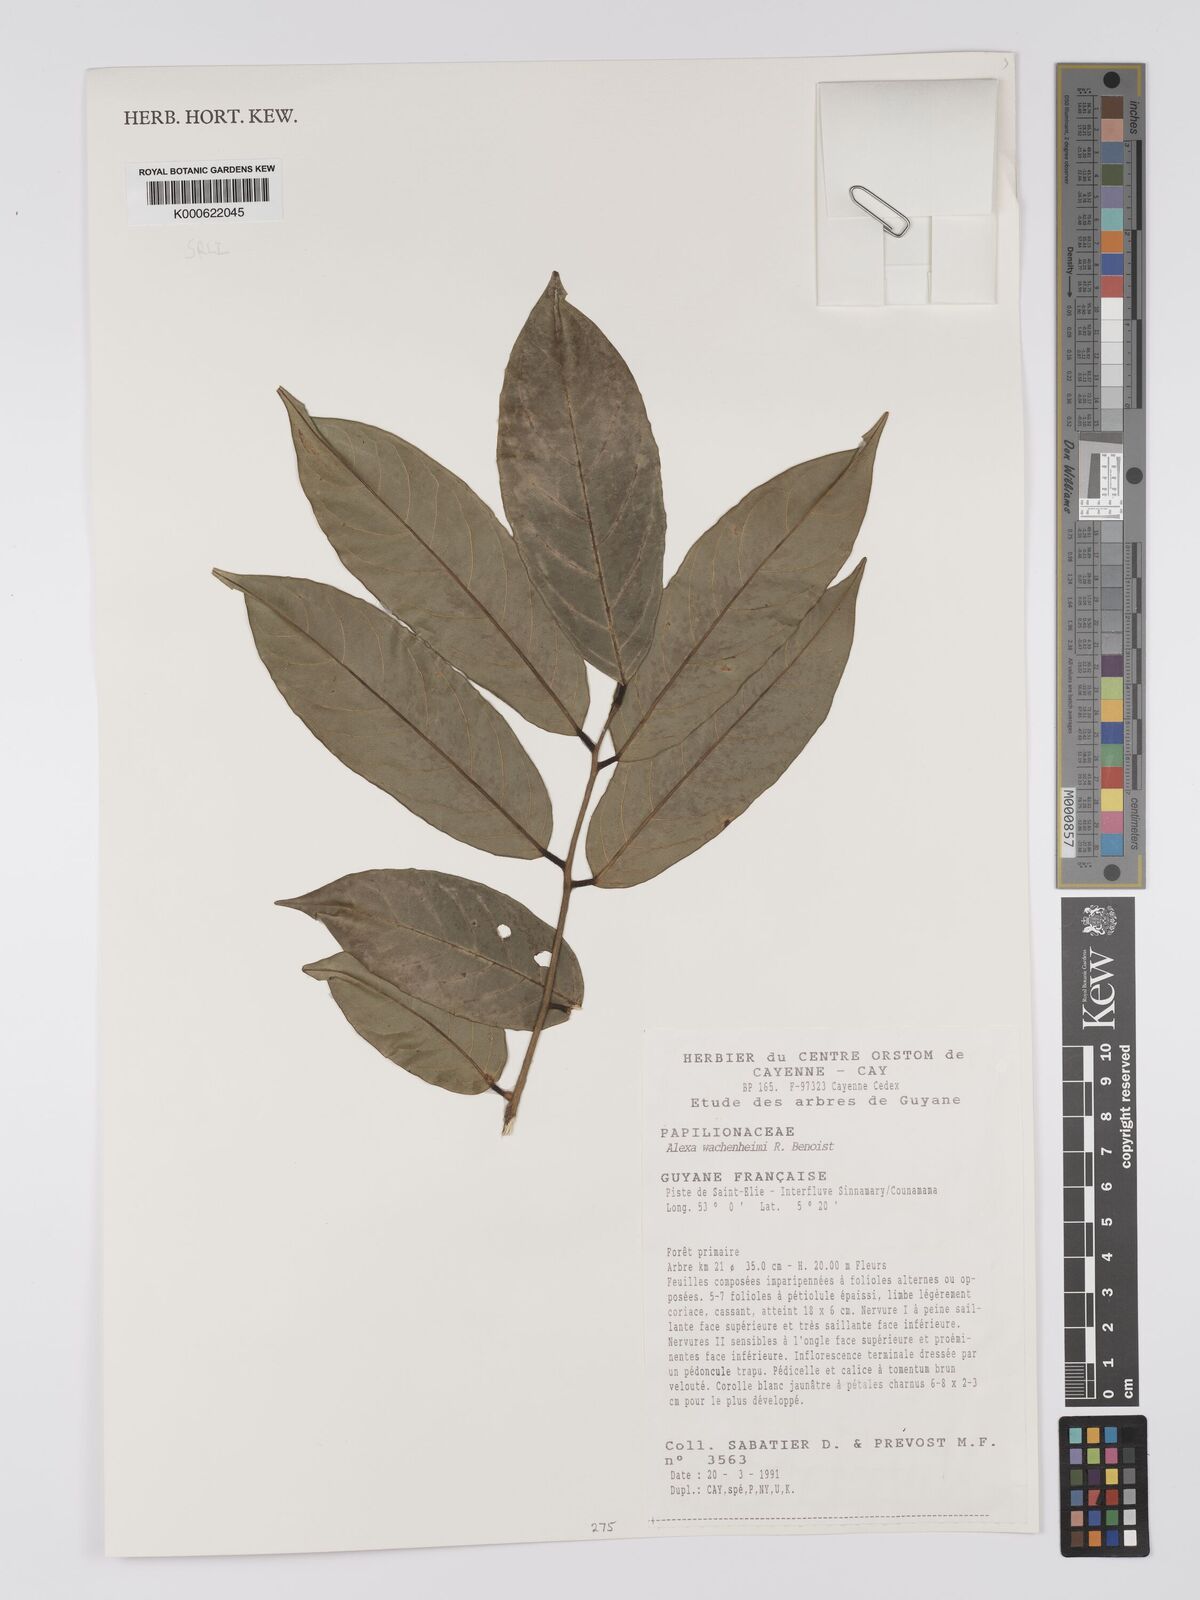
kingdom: Plantae
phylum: Tracheophyta
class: Magnoliopsida
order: Fabales
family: Fabaceae
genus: Alexa
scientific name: Alexa wachenheimii
